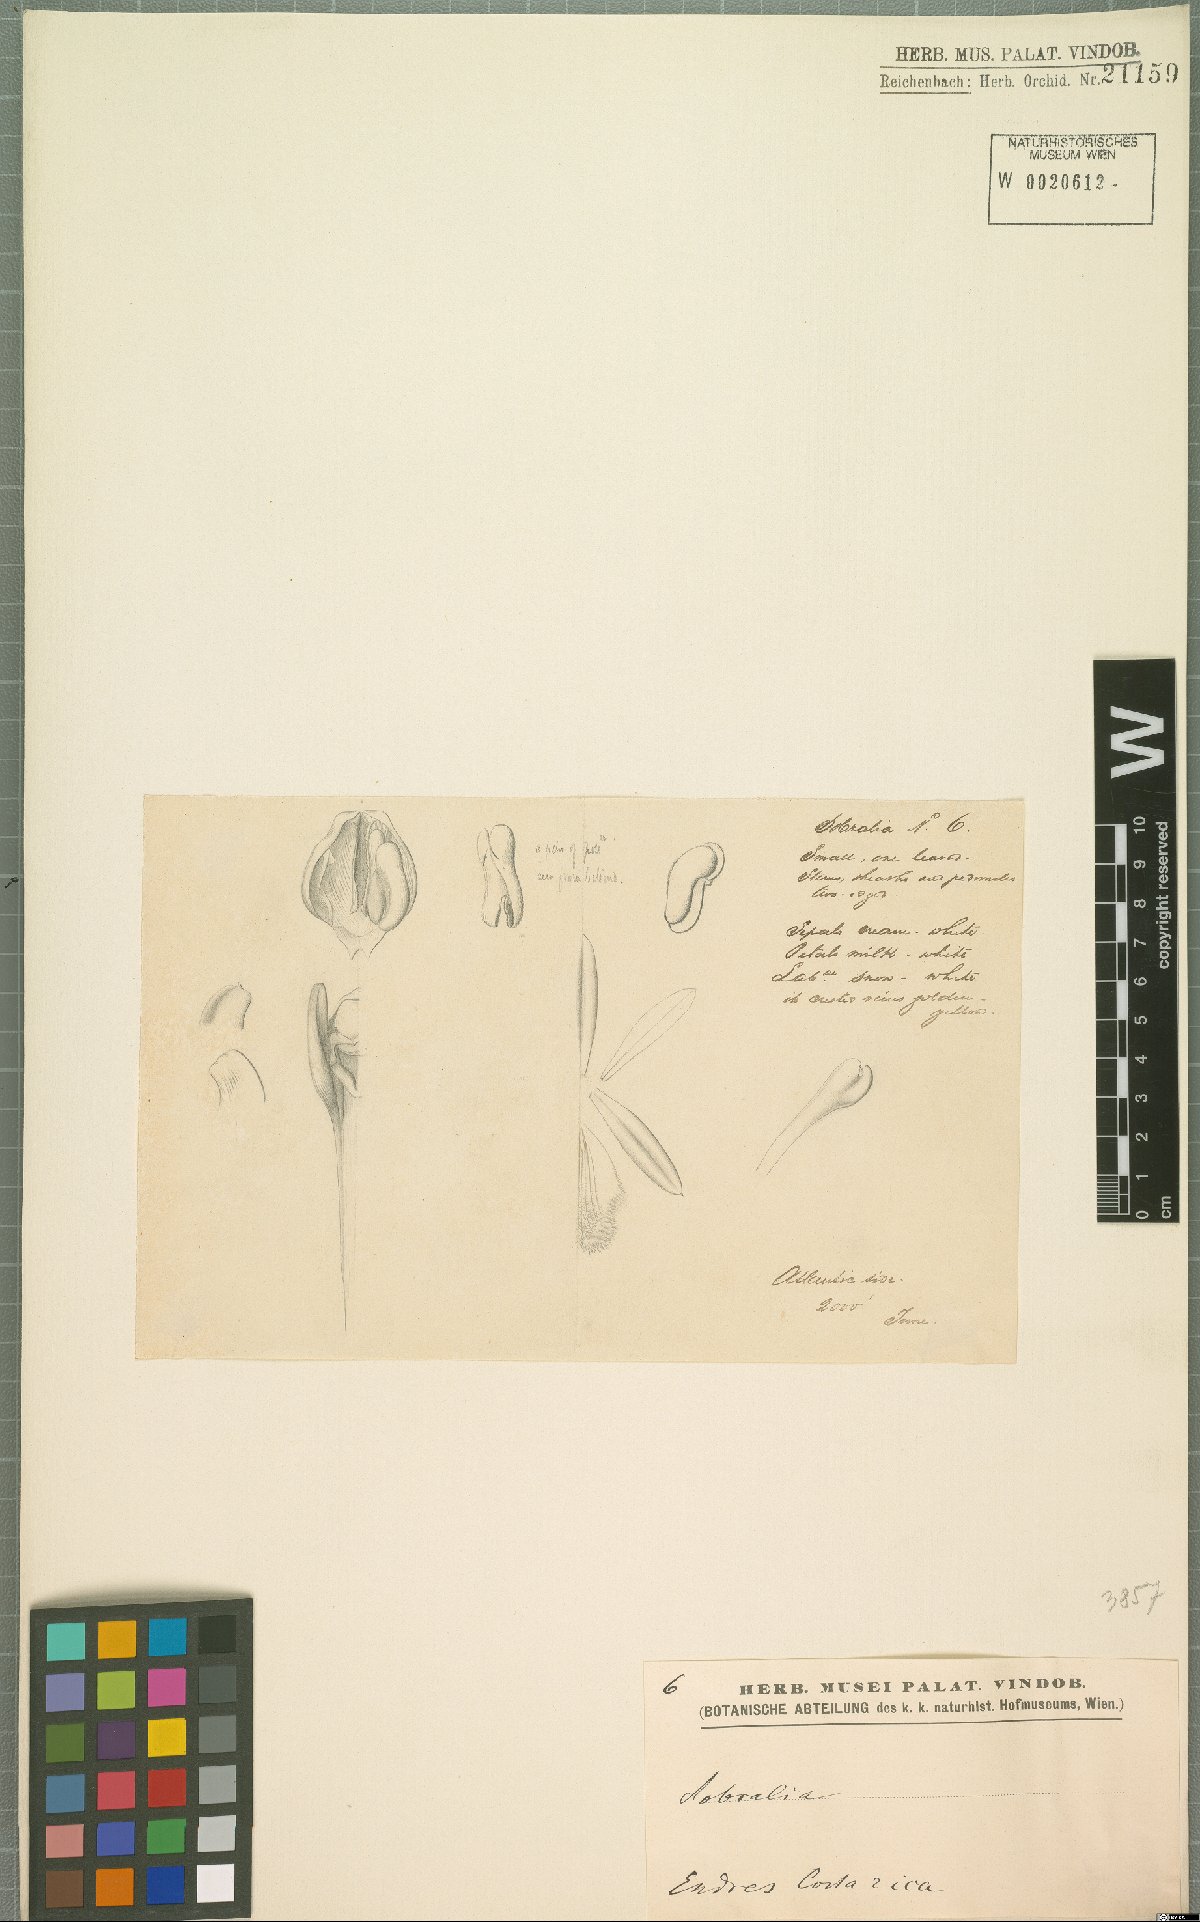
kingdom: Plantae
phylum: Tracheophyta
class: Liliopsida
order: Asparagales
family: Orchidaceae
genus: Sobralia
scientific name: Sobralia
